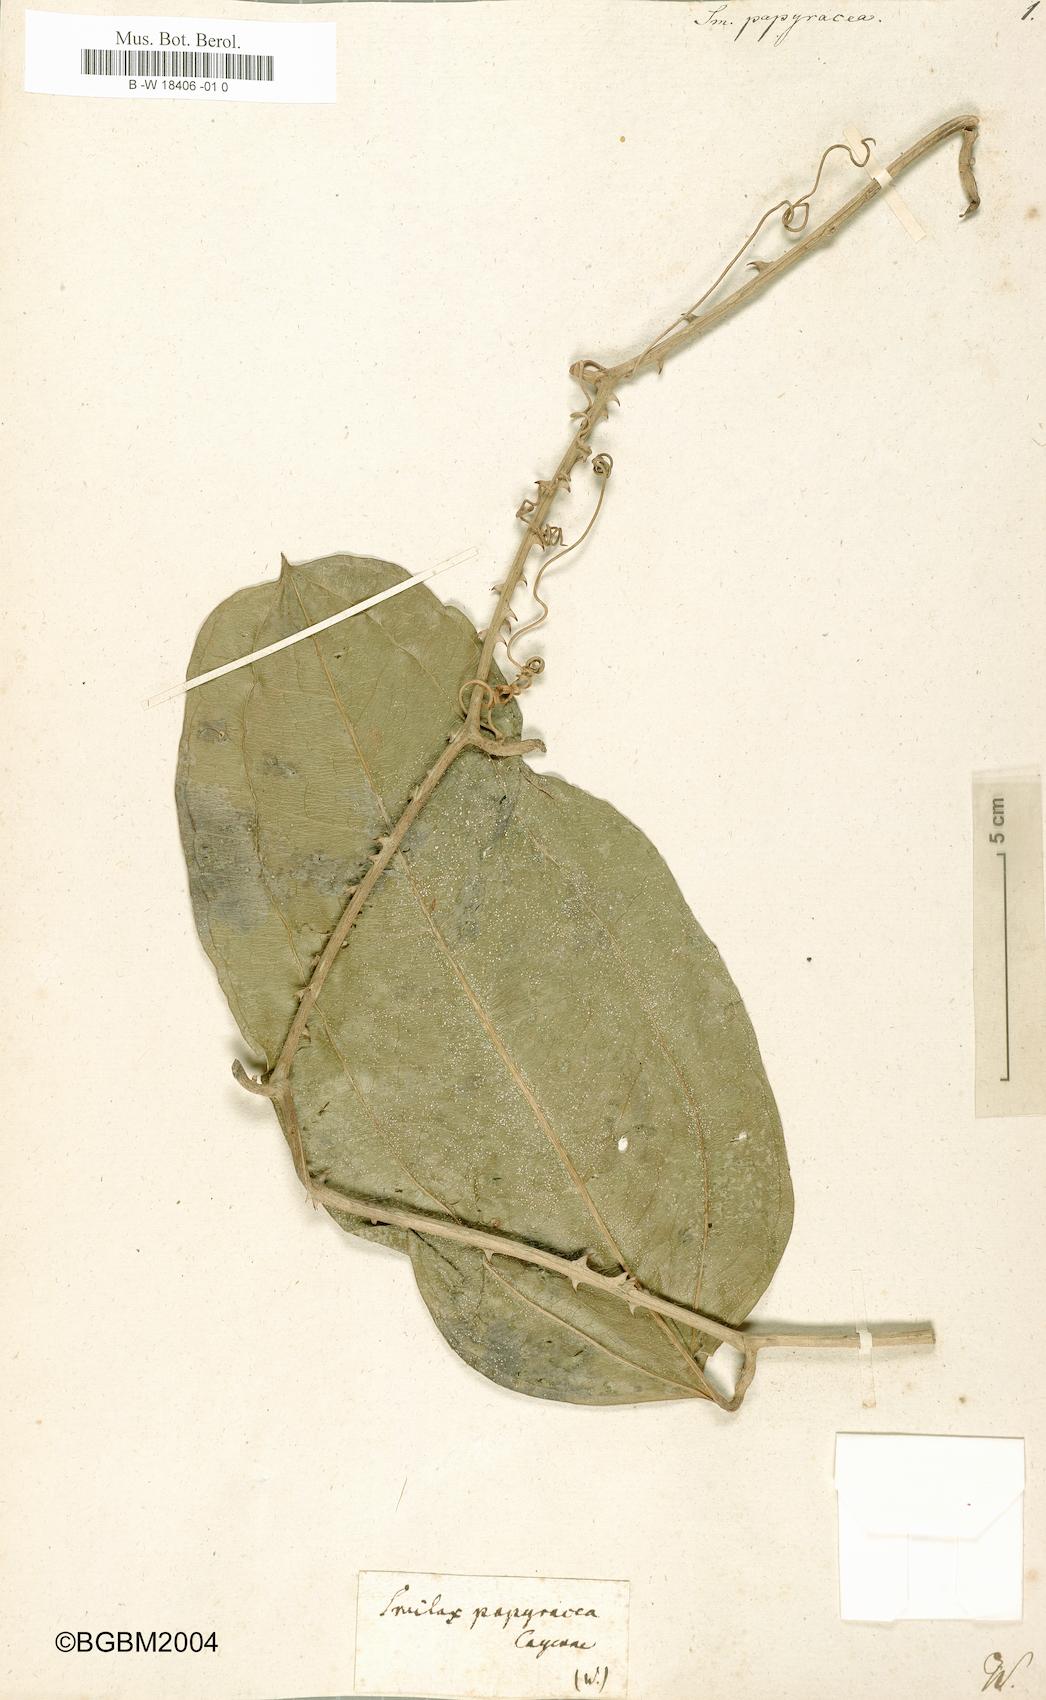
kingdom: Plantae
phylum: Tracheophyta
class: Liliopsida
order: Liliales
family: Smilacaceae
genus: Smilax
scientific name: Smilax papyracea
